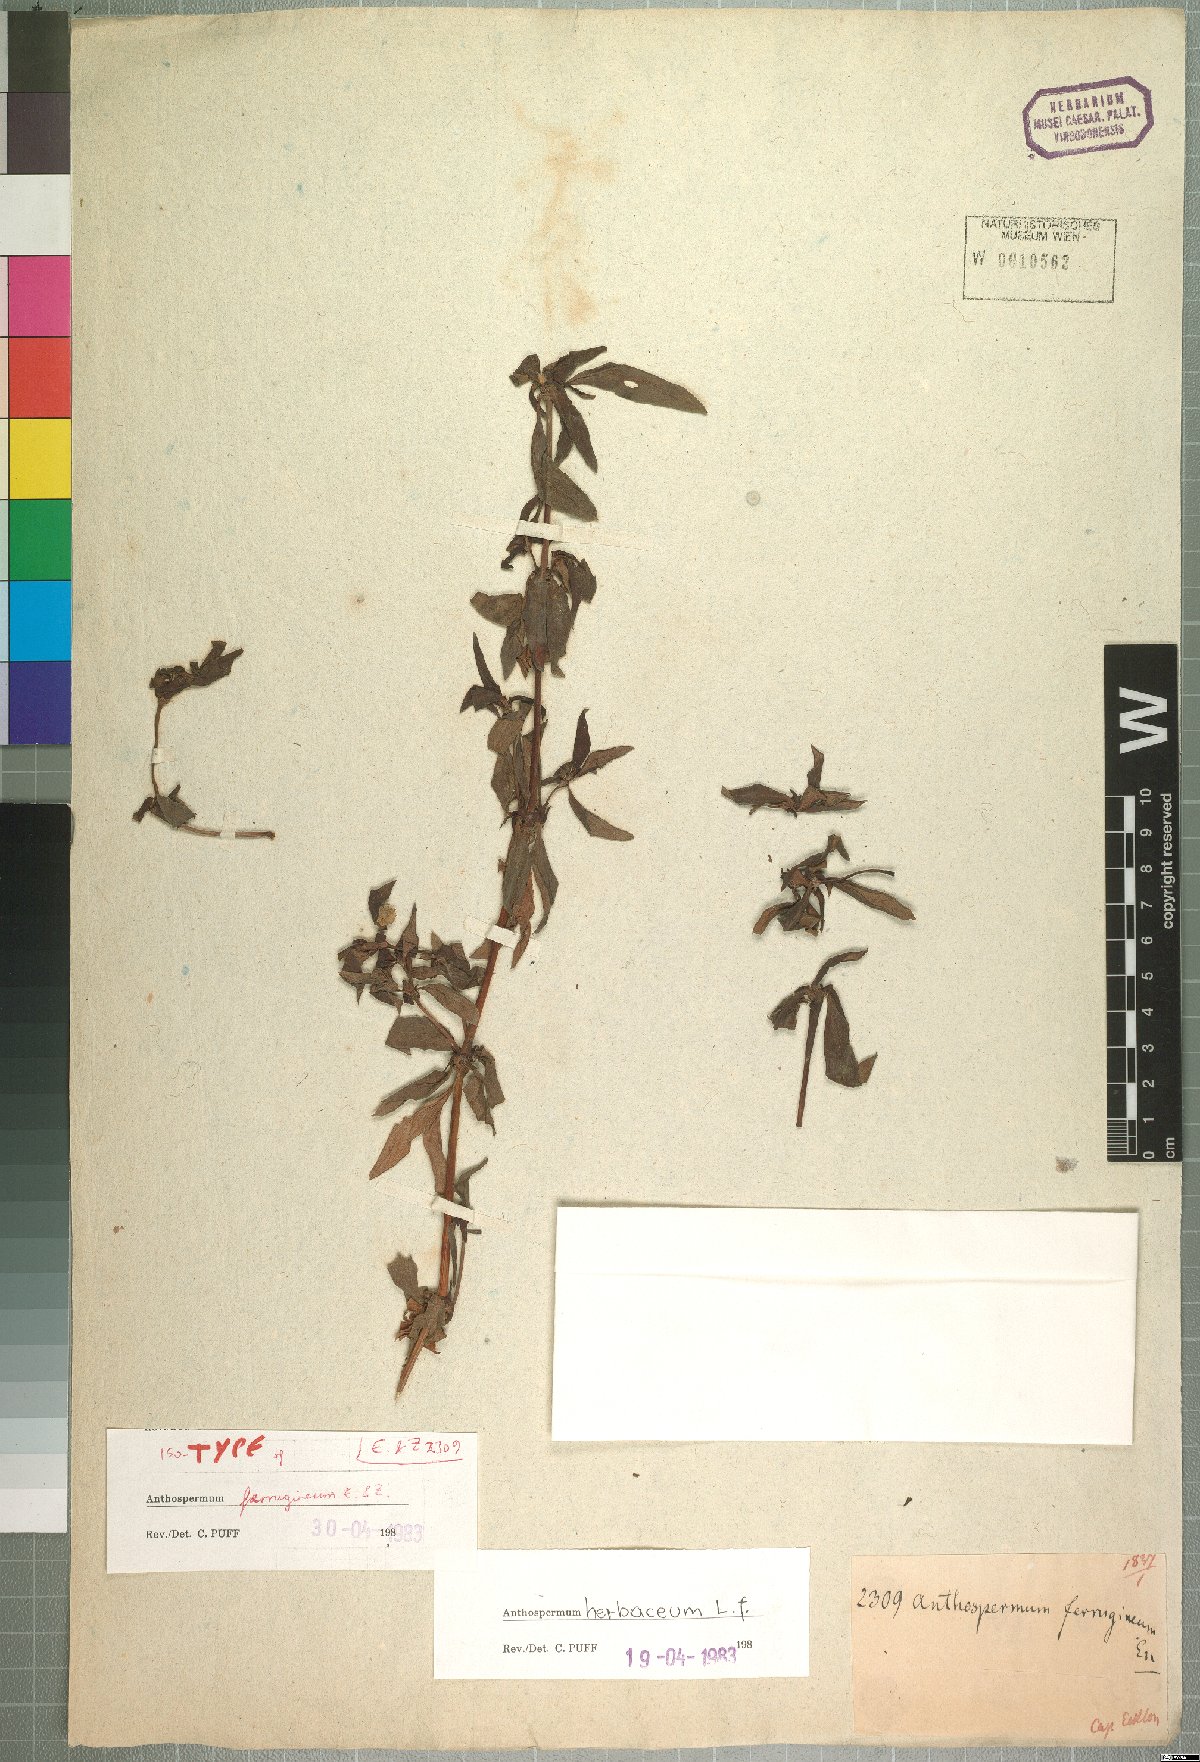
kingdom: Plantae
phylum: Tracheophyta
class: Magnoliopsida
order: Gentianales
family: Rubiaceae
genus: Anthospermum
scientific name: Anthospermum herbaceum
